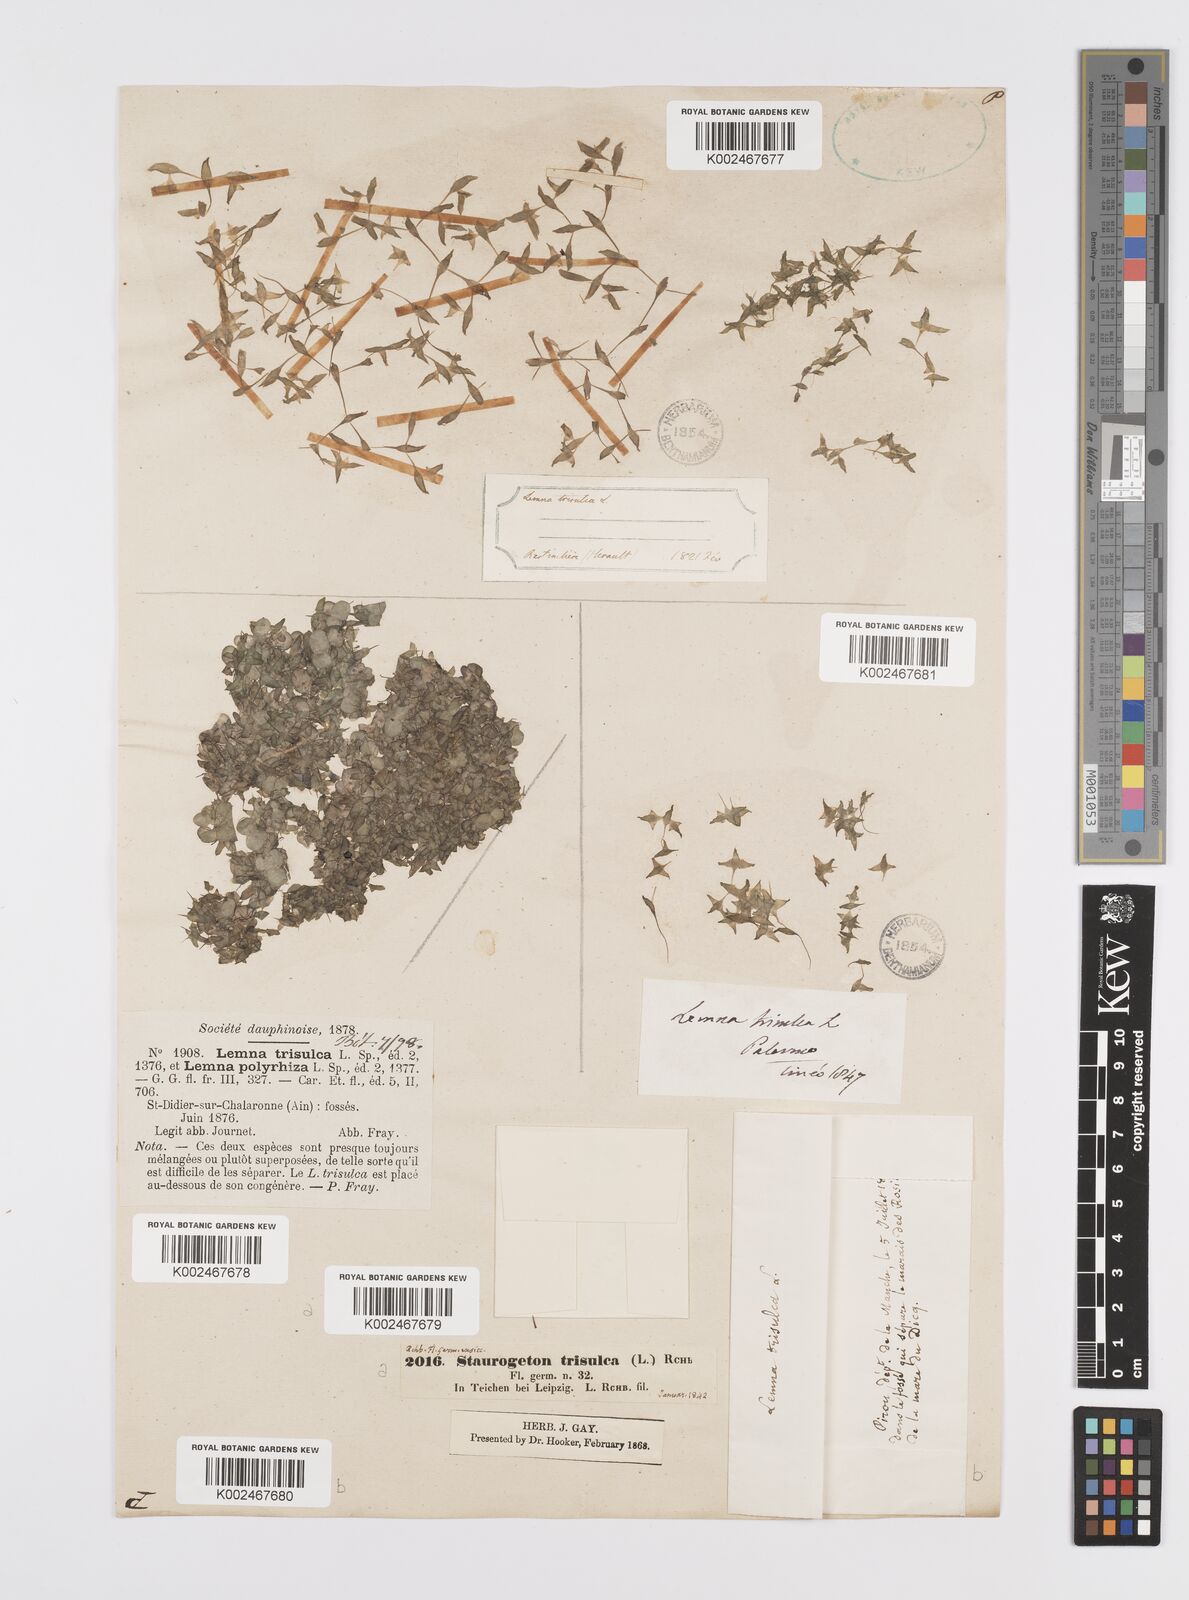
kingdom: Plantae
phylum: Tracheophyta
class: Liliopsida
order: Alismatales
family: Araceae
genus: Lemna
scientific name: Lemna trisulca
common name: Ivy-leaved duckweed
